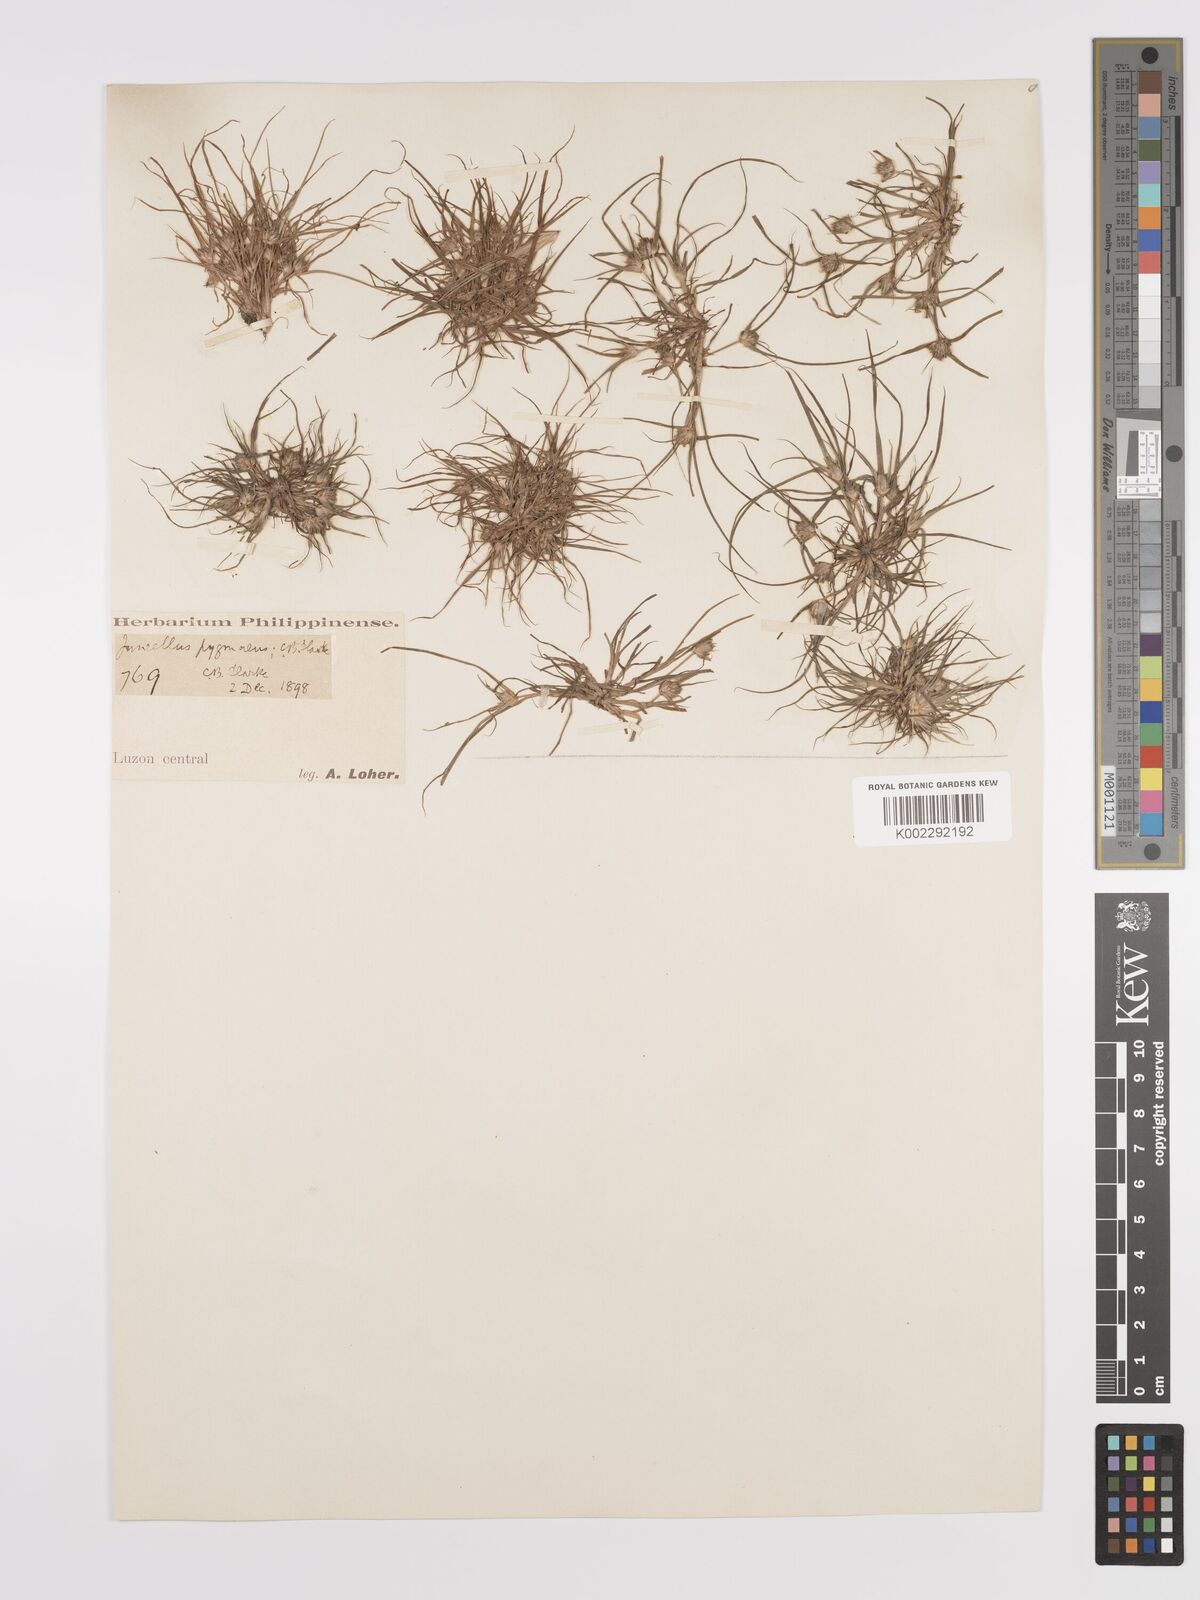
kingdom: Plantae
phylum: Tracheophyta
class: Liliopsida
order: Poales
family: Cyperaceae
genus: Cyperus
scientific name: Cyperus michelianus
